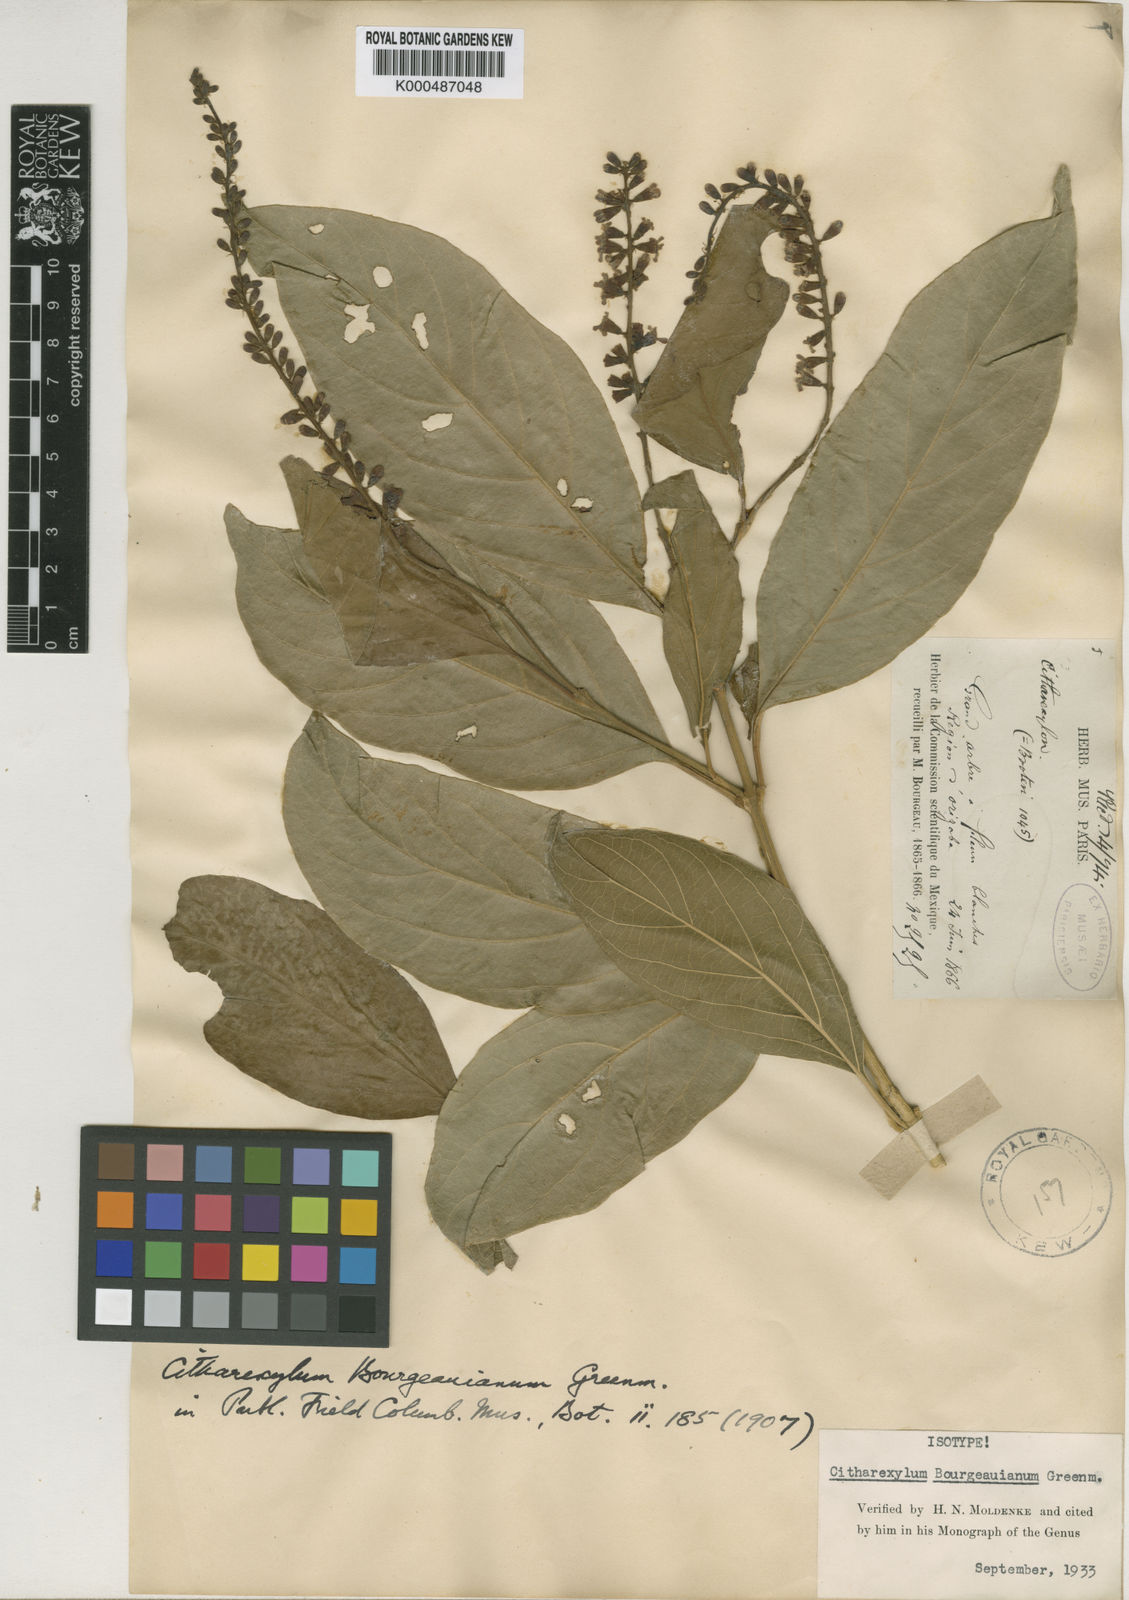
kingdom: Plantae
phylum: Tracheophyta
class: Magnoliopsida
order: Lamiales
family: Verbenaceae
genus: Citharexylum
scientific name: Citharexylum
